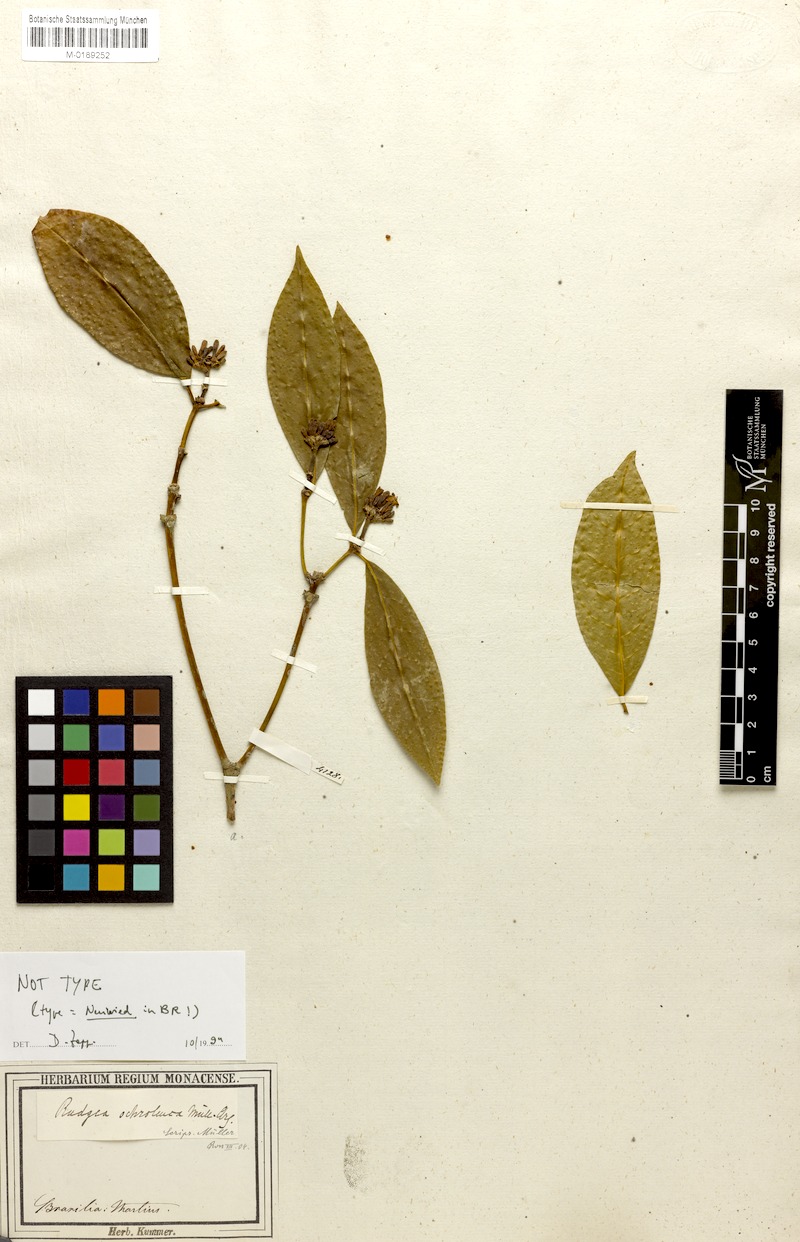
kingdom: Plantae
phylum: Tracheophyta
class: Magnoliopsida
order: Gentianales
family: Rubiaceae
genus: Rudgea
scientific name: Rudgea coronata
